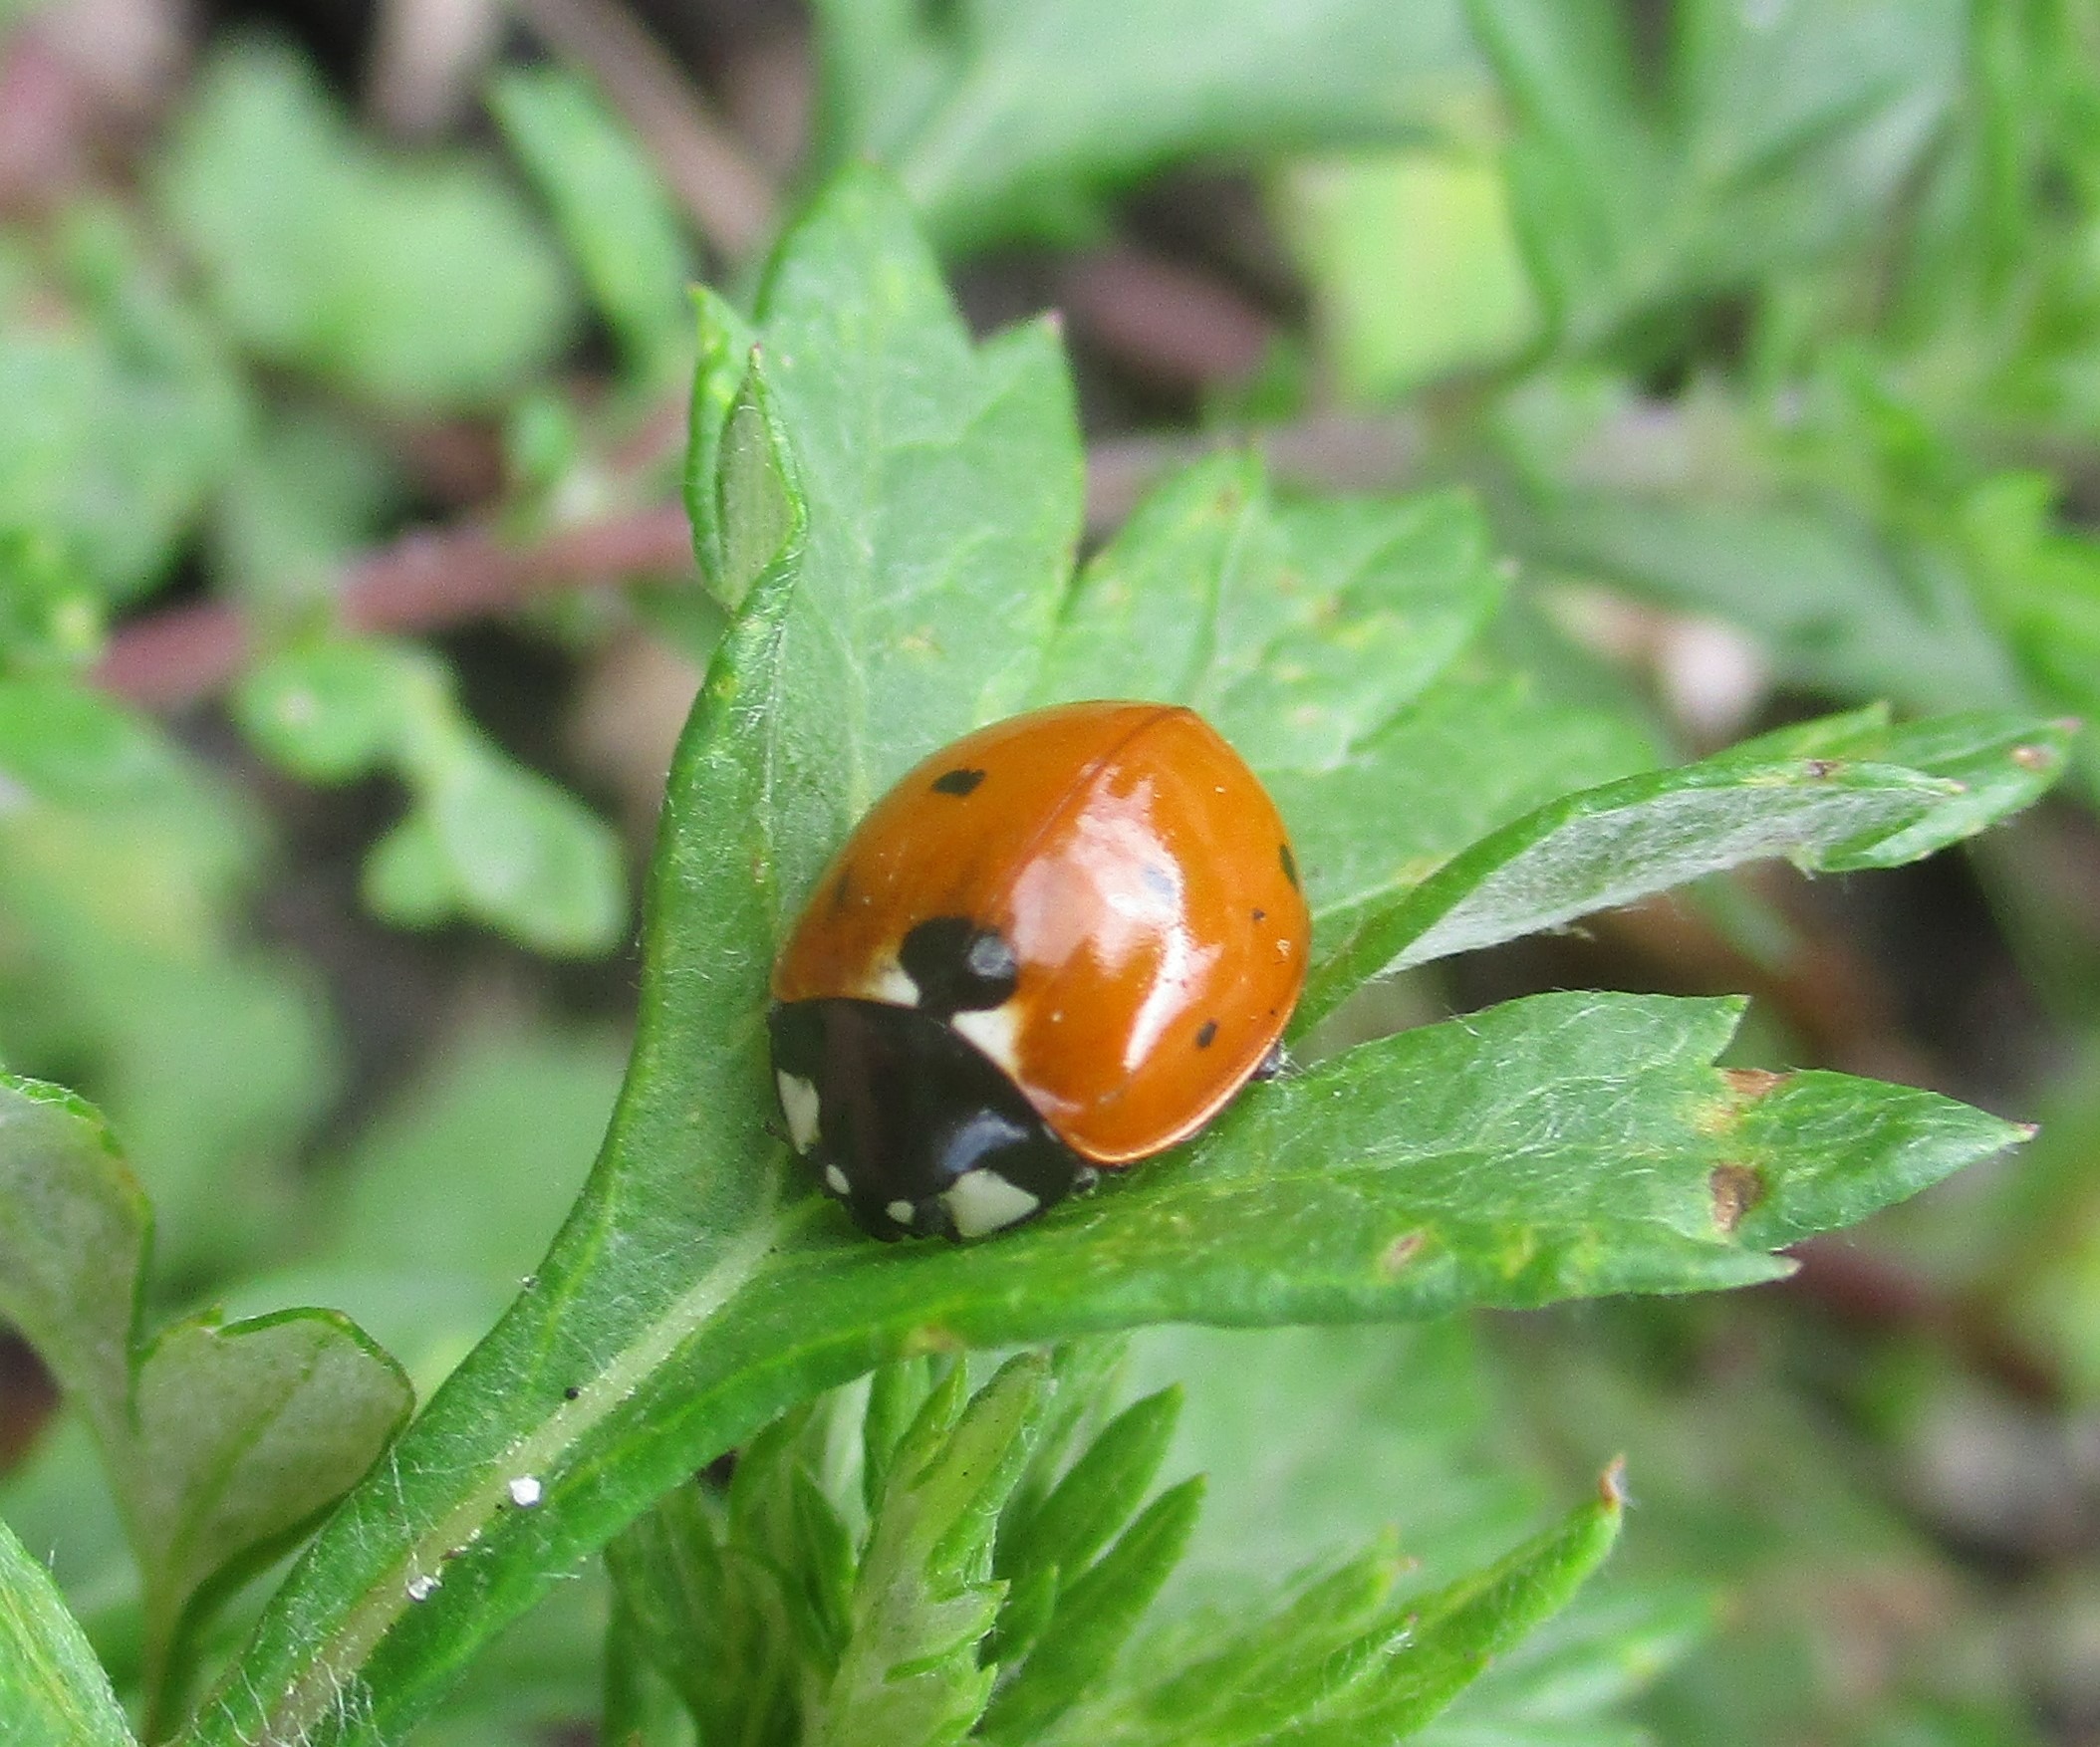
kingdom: Animalia
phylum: Arthropoda
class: Insecta
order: Coleoptera
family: Coccinellidae
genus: Coccinella
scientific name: Coccinella septempunctata
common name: Syvplettet mariehøne
